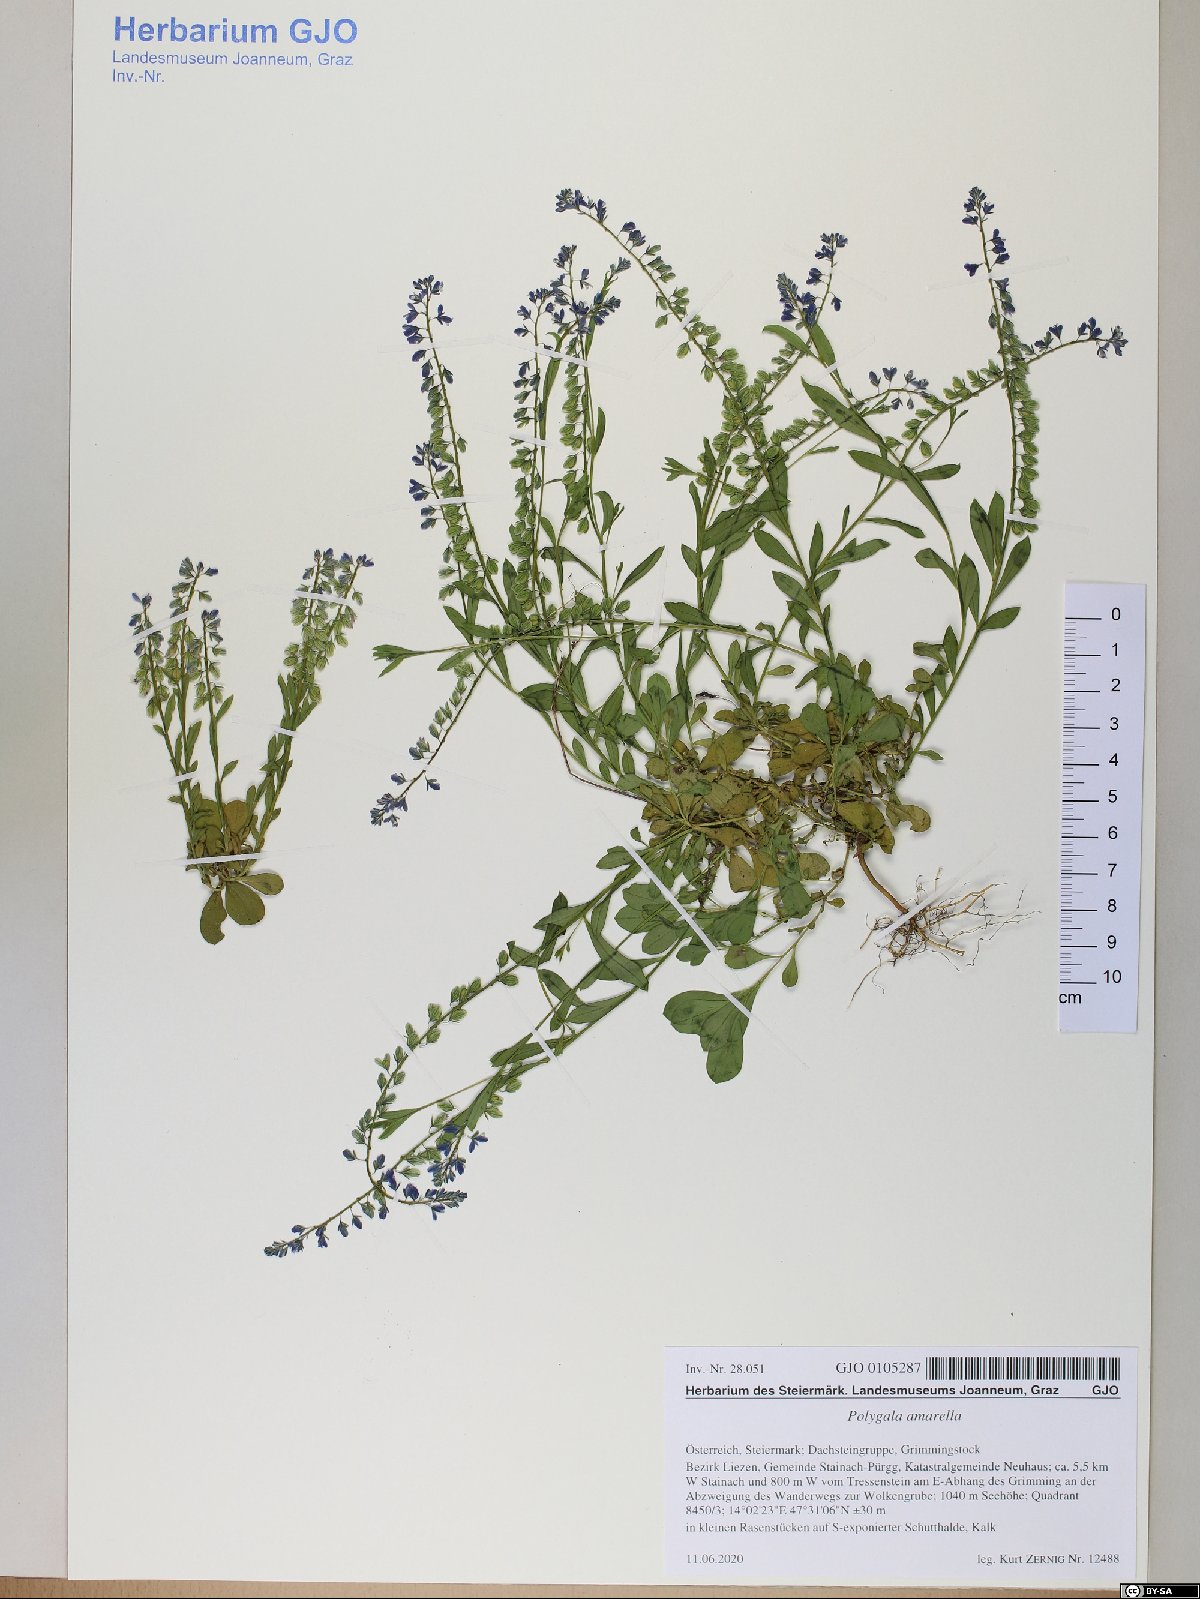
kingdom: Plantae
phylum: Tracheophyta
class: Magnoliopsida
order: Fabales
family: Polygalaceae
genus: Polygala
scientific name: Polygala amarella
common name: Dwarf milkwort
